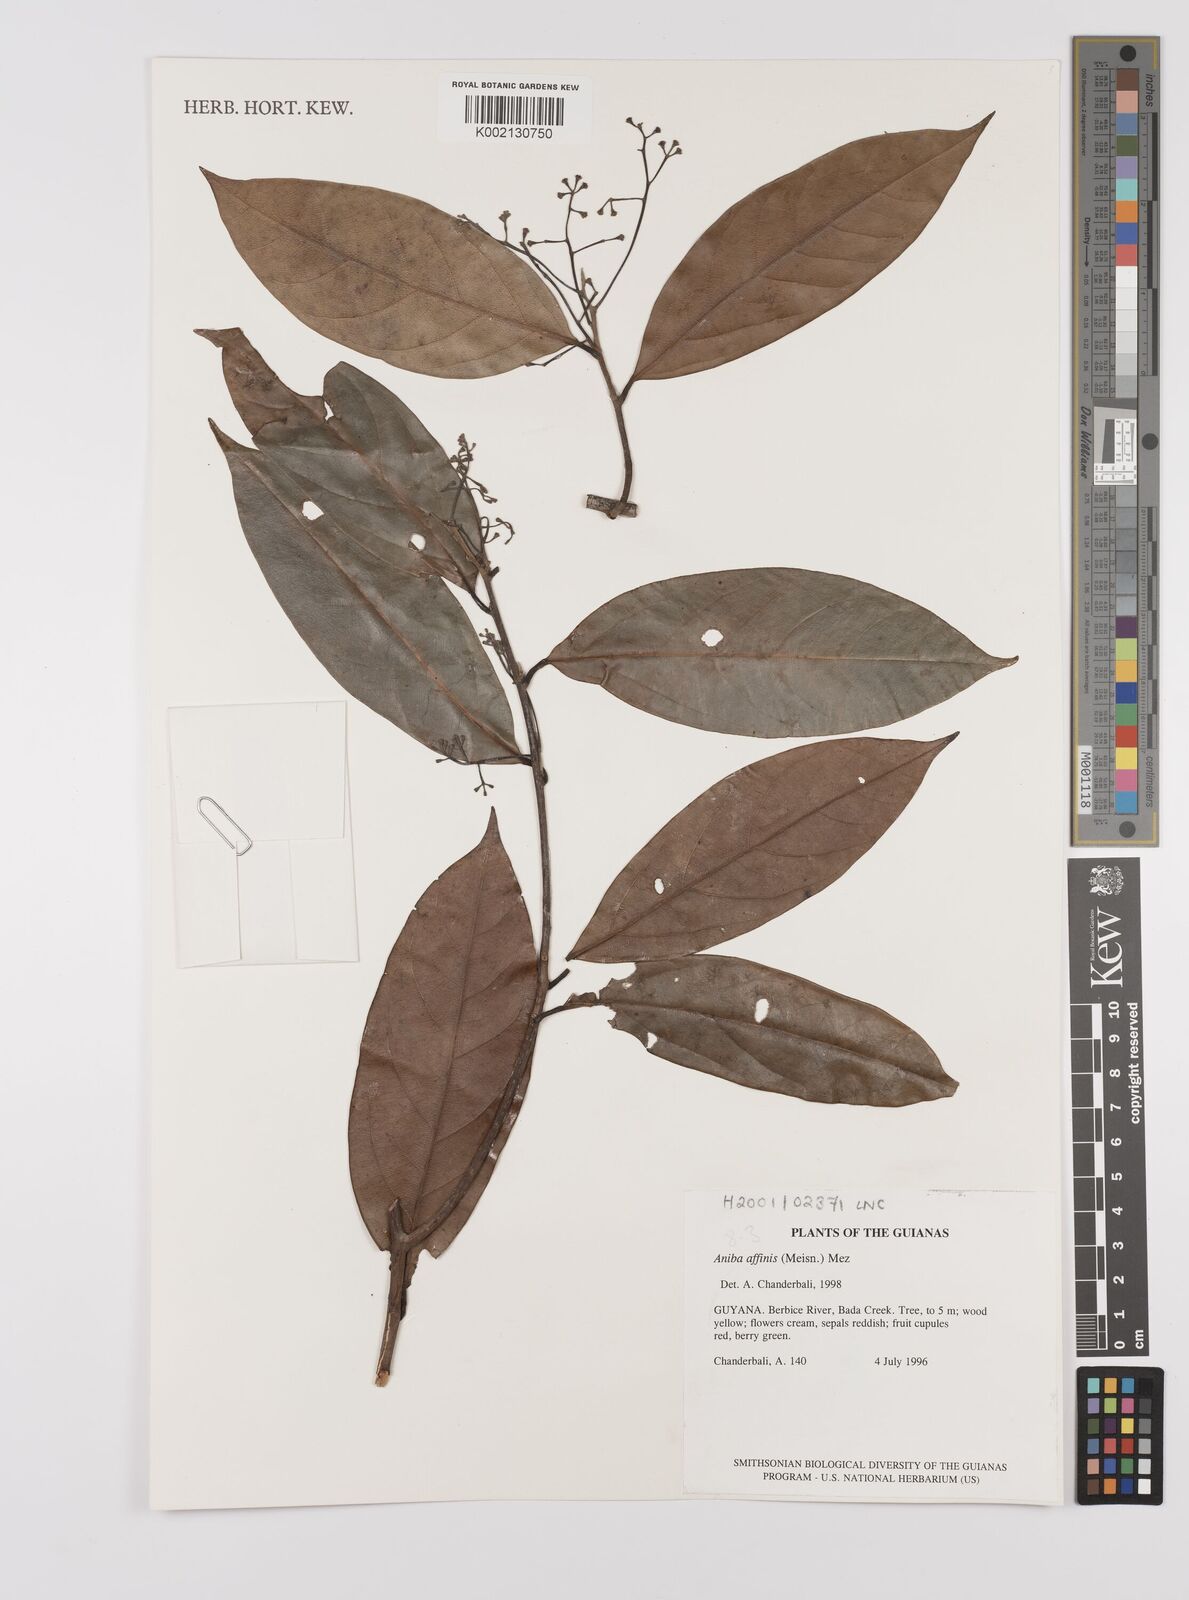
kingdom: Plantae
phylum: Tracheophyta
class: Magnoliopsida
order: Laurales
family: Lauraceae
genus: Aniba
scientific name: Aniba affinis
